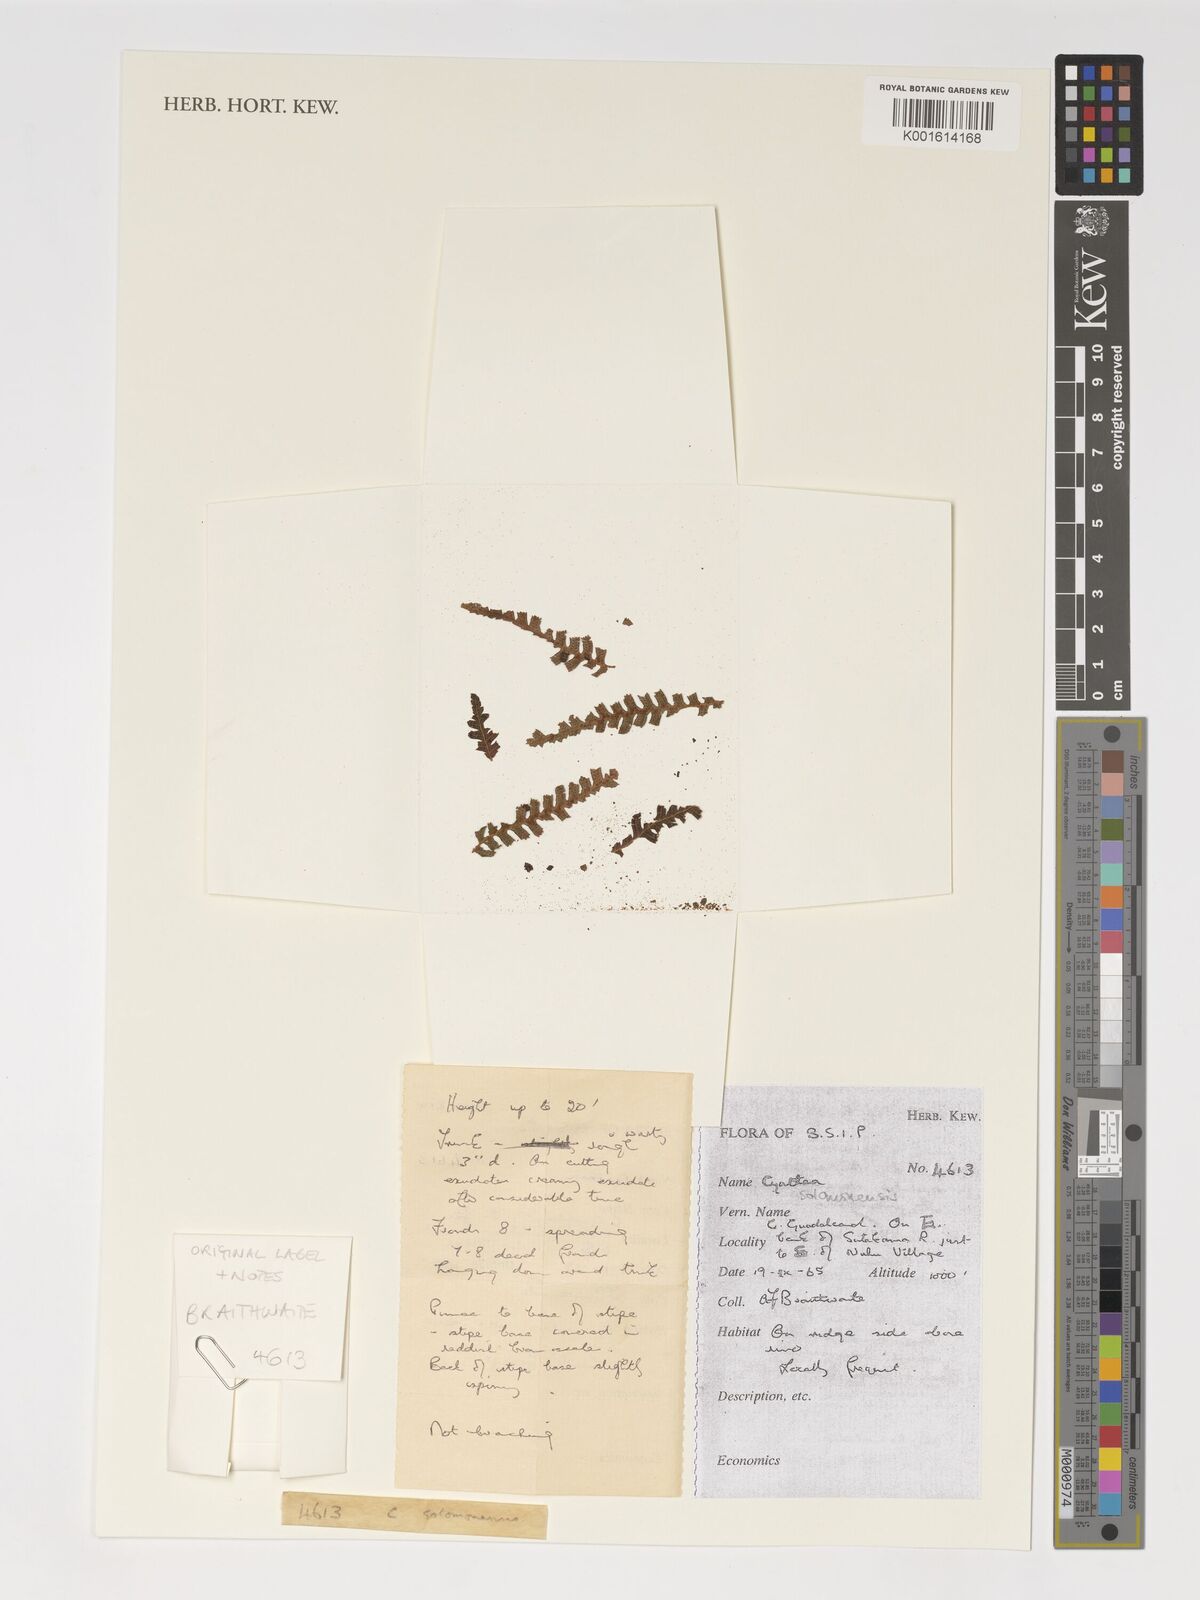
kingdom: Plantae
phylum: Tracheophyta
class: Polypodiopsida
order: Cyatheales
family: Cyatheaceae
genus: Alsophila
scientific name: Alsophila solomonensis
